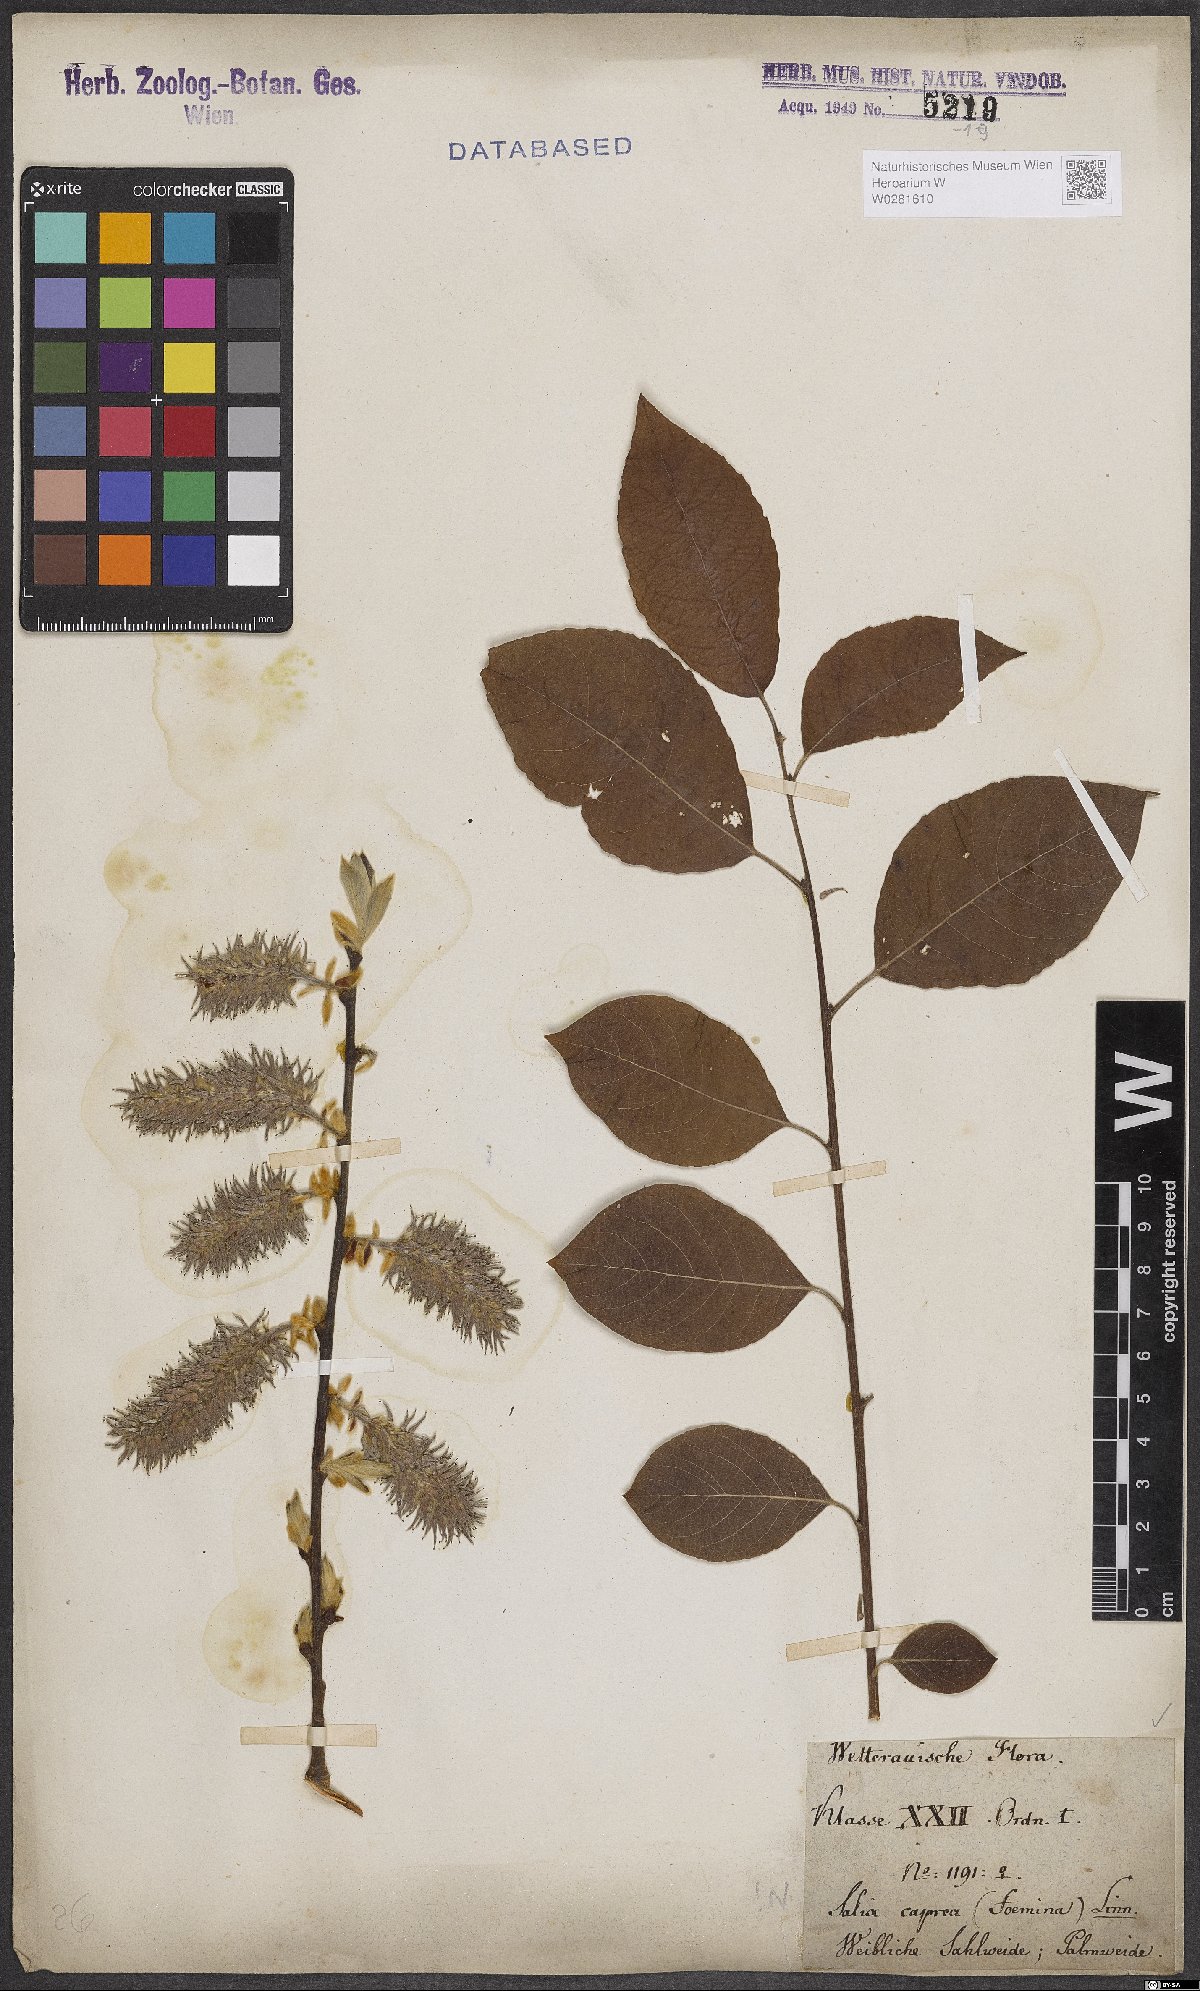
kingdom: Plantae
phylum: Tracheophyta
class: Magnoliopsida
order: Malpighiales
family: Salicaceae
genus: Salix
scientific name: Salix caprea
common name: Goat willow
